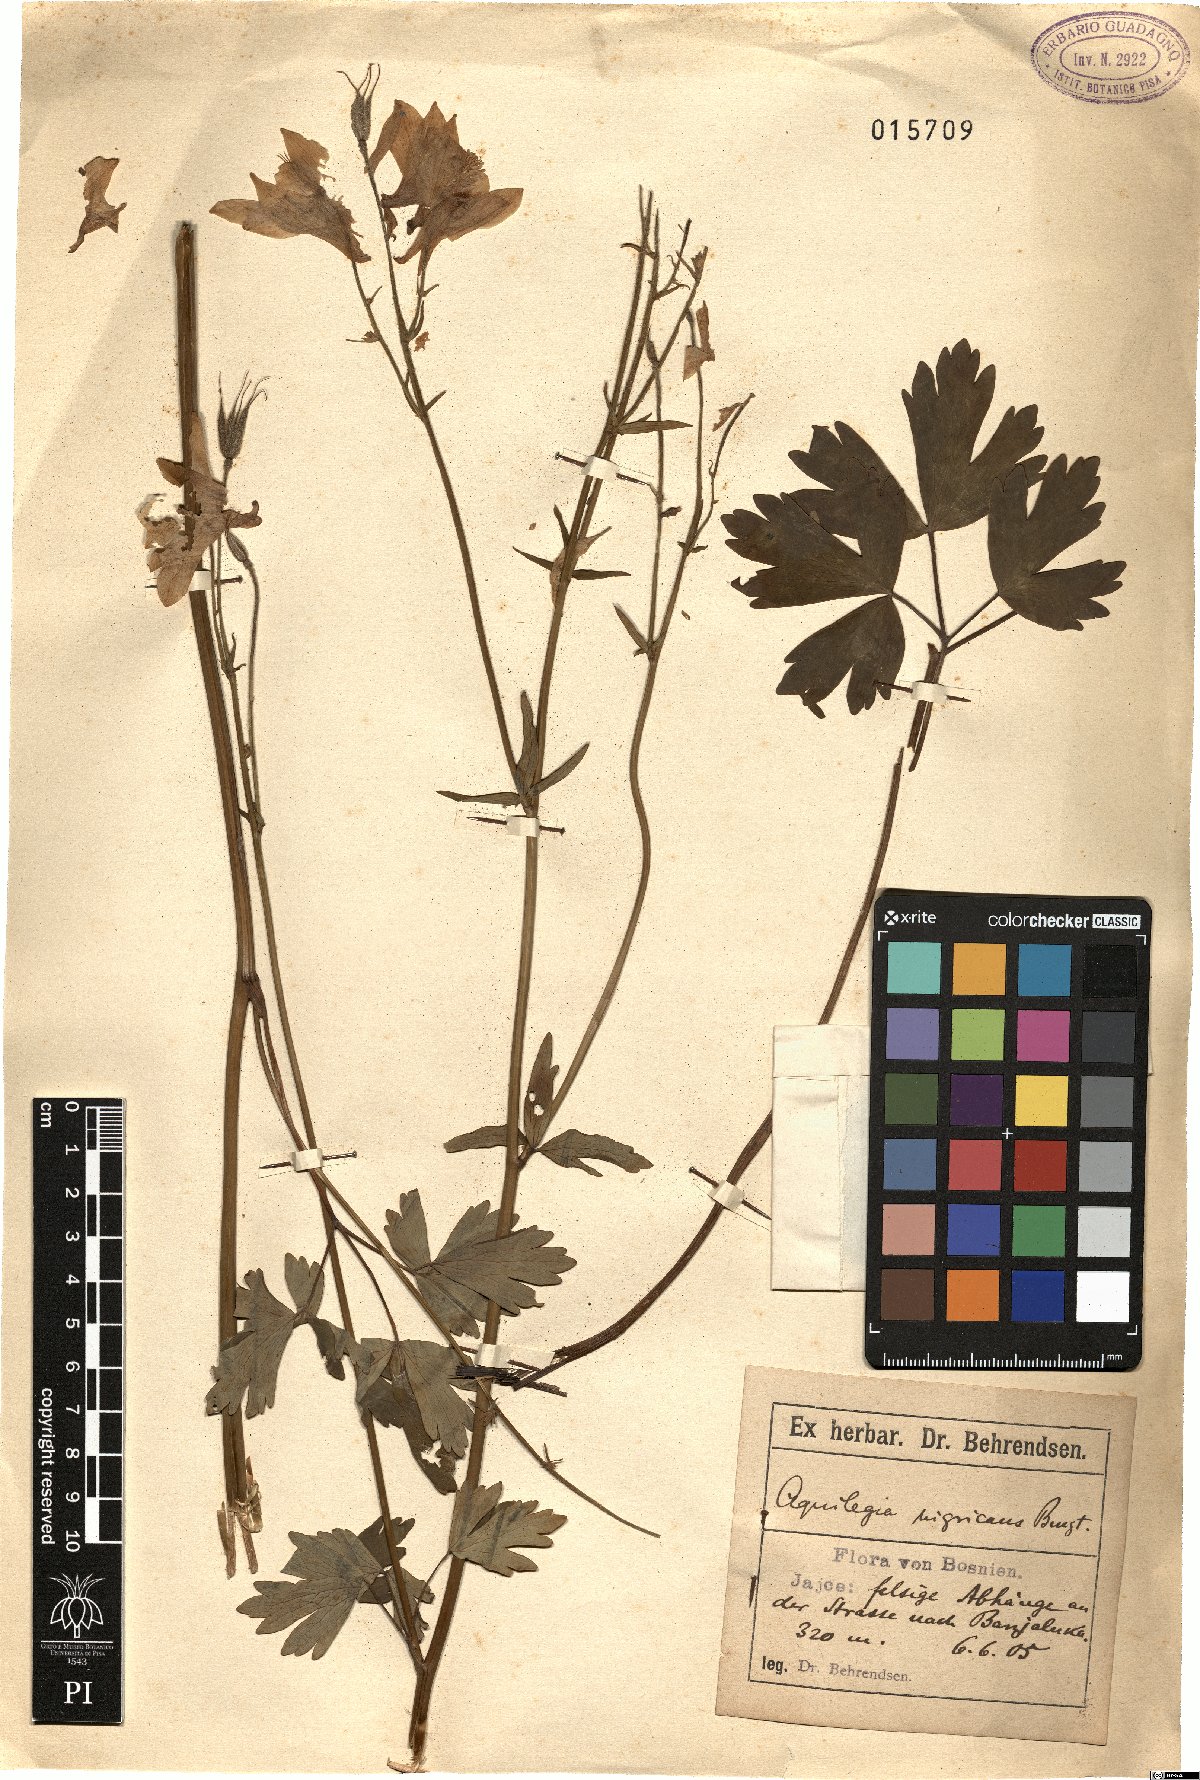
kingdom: Plantae
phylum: Tracheophyta
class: Magnoliopsida
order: Ranunculales
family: Ranunculaceae
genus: Aquilegia
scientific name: Aquilegia nigricans
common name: Bulgarian columbine
